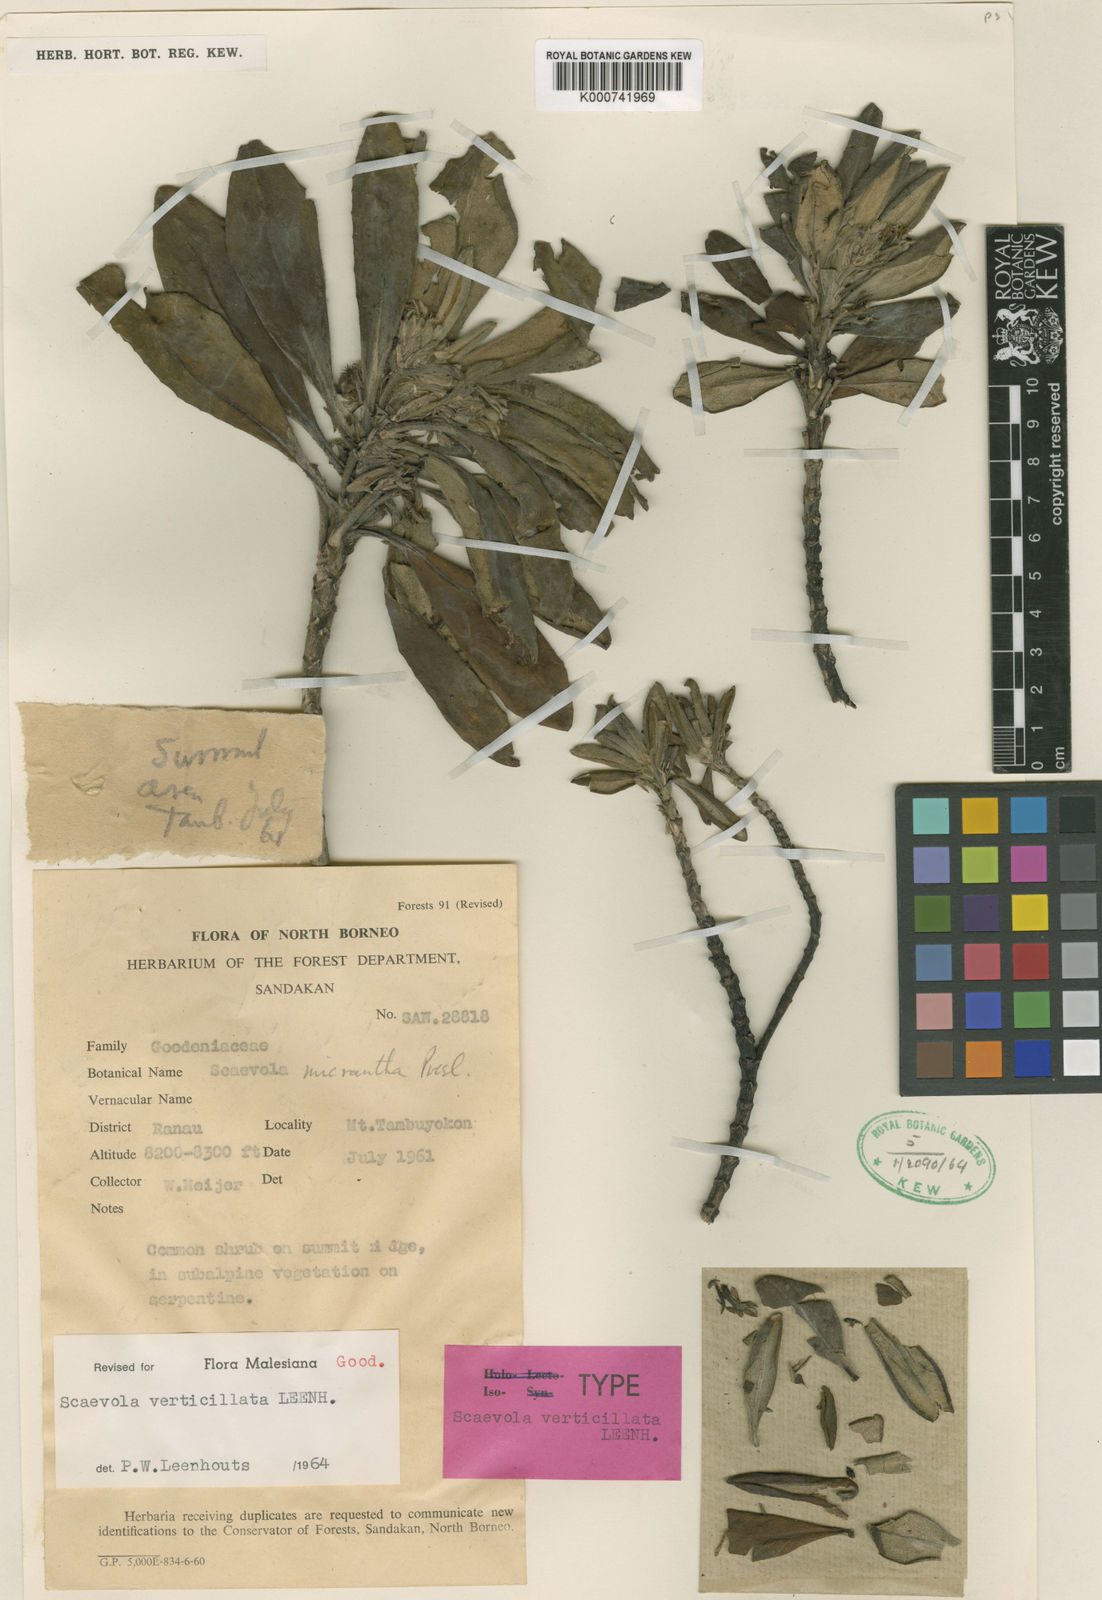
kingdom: Plantae
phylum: Tracheophyta
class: Magnoliopsida
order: Asterales
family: Goodeniaceae
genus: Scaevola
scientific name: Scaevola verticillata
